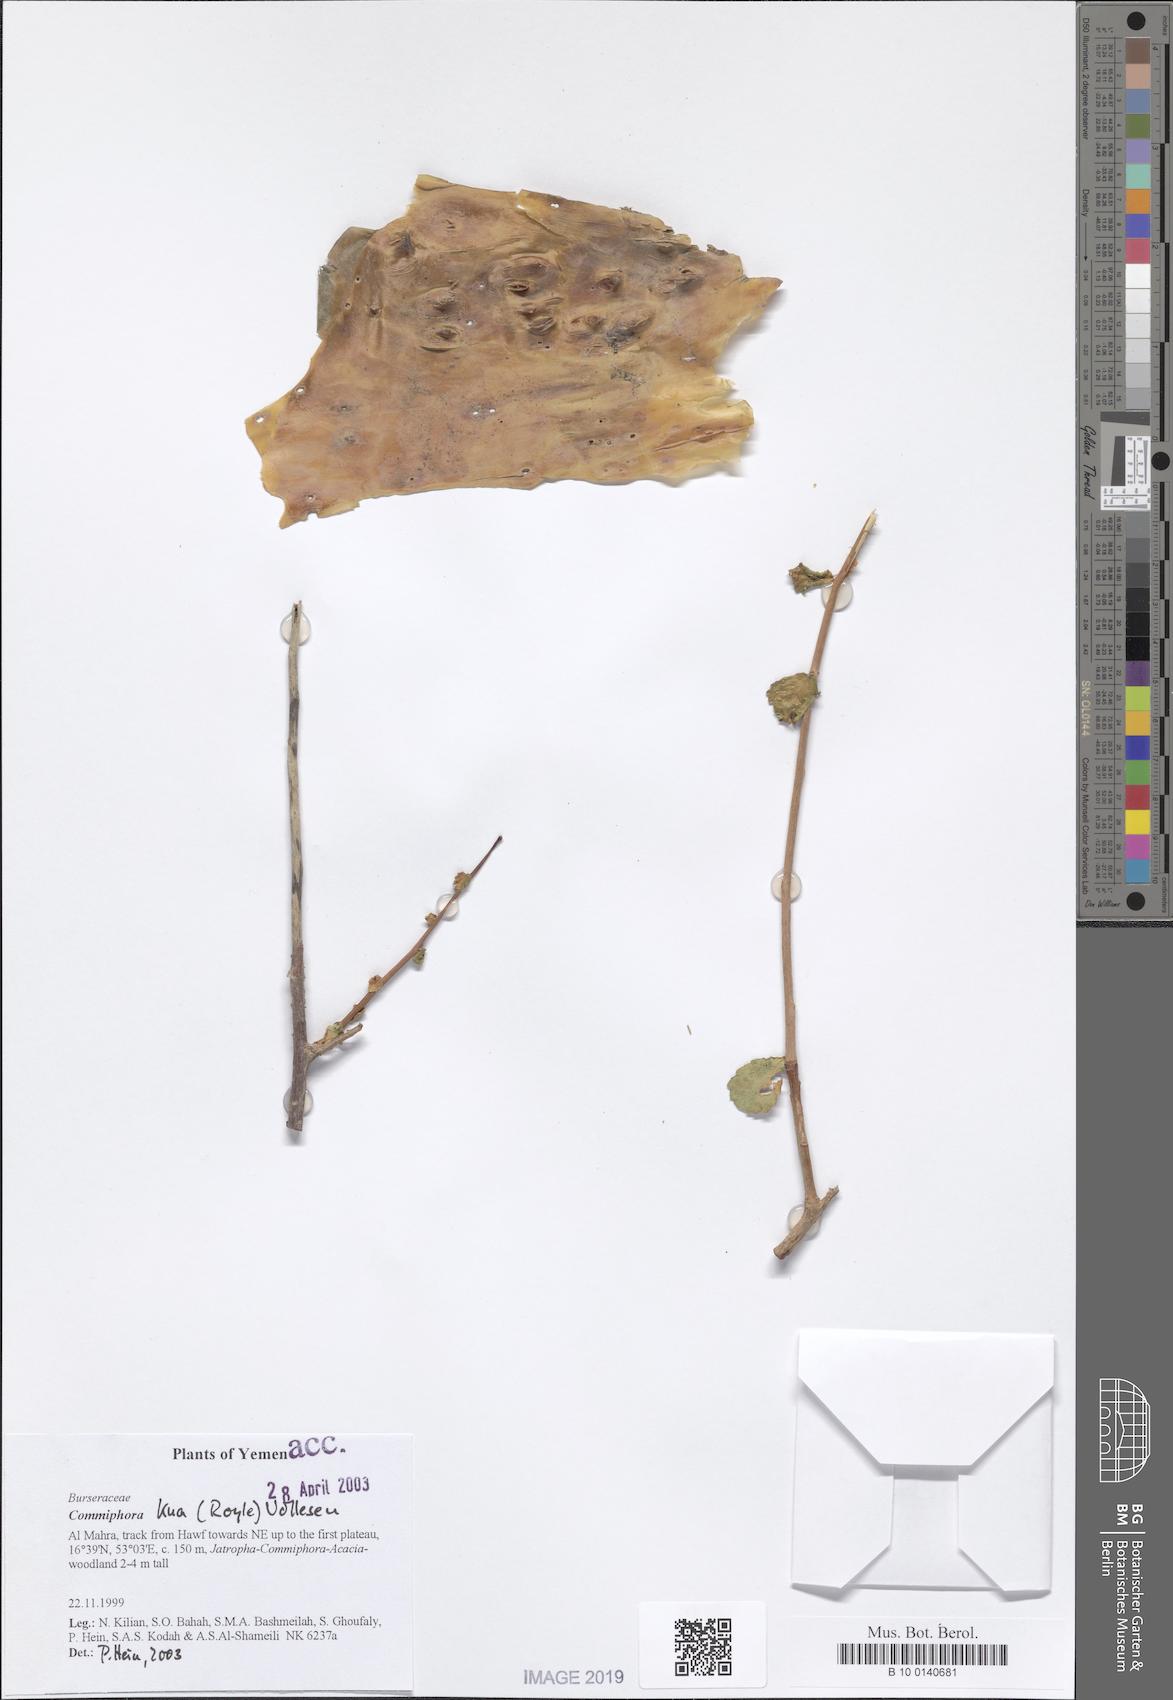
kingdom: Plantae
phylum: Tracheophyta
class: Magnoliopsida
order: Sapindales
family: Burseraceae
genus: Commiphora
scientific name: Commiphora kua
